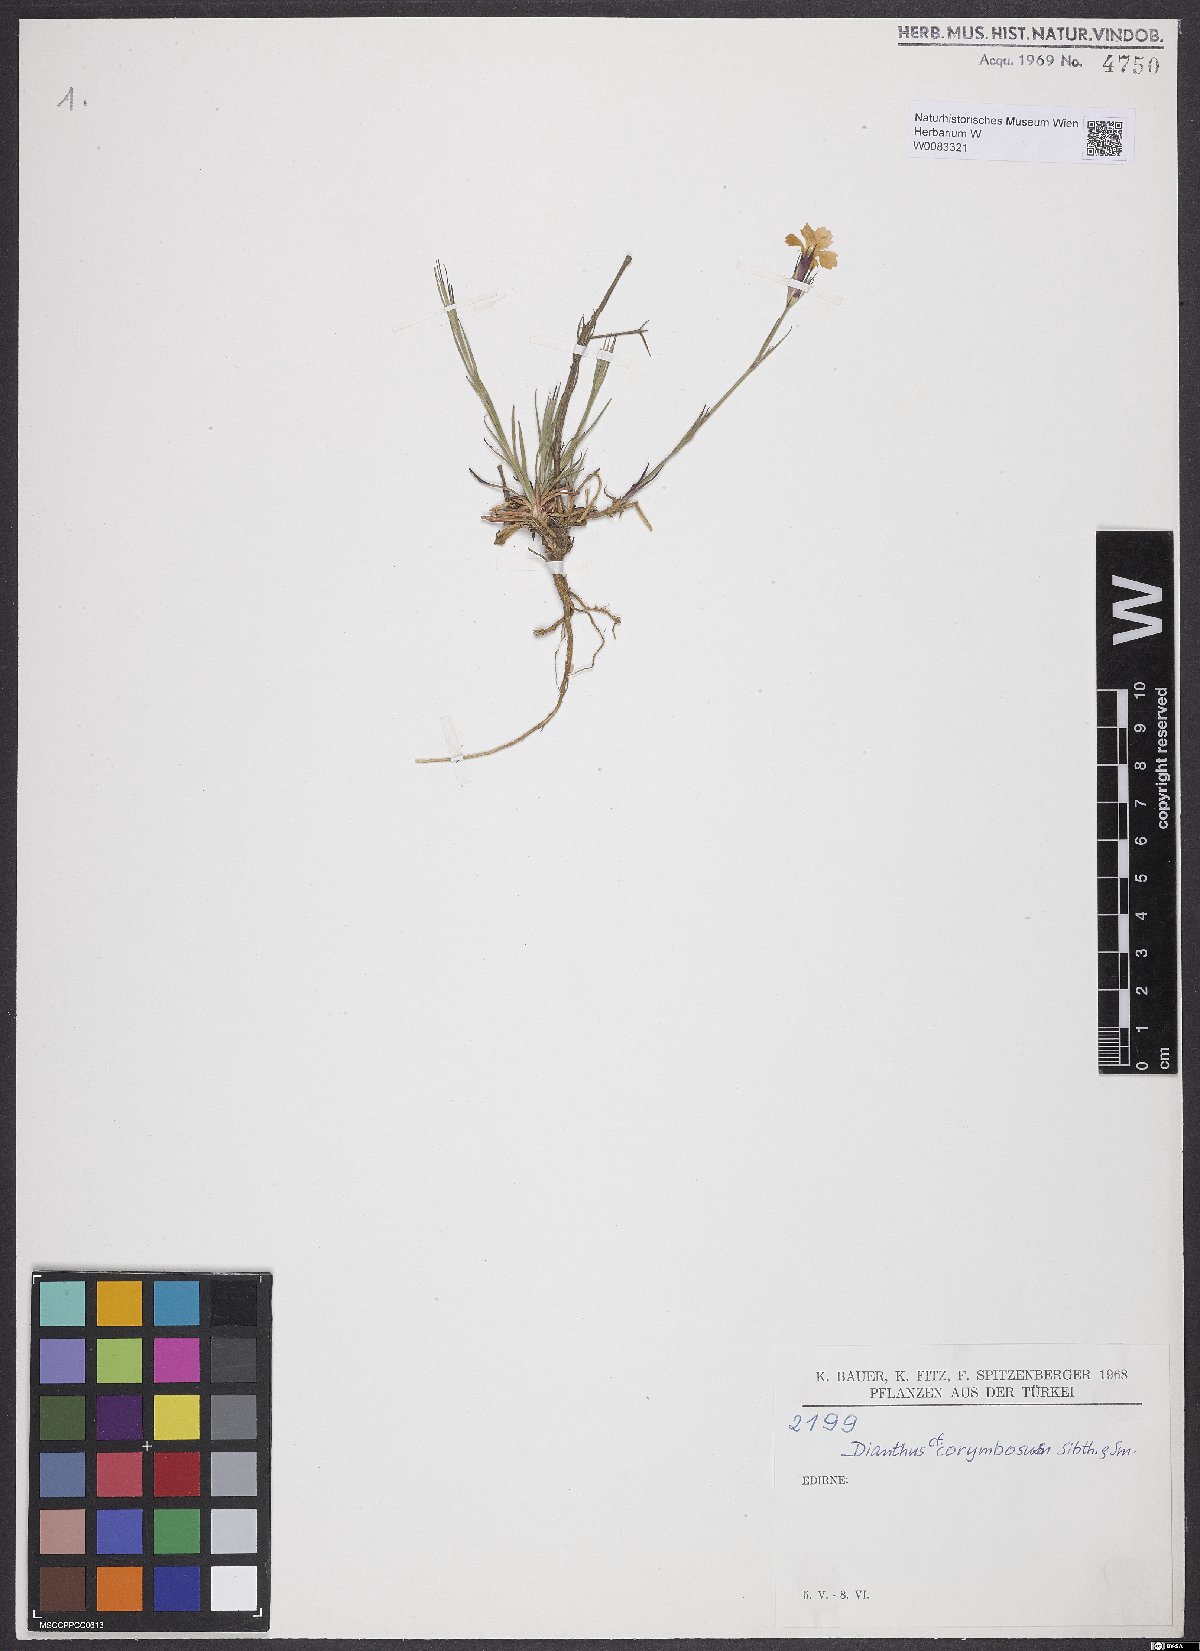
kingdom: Plantae
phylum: Tracheophyta
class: Magnoliopsida
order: Caryophyllales
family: Caryophyllaceae
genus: Dianthus
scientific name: Dianthus corymbosus
